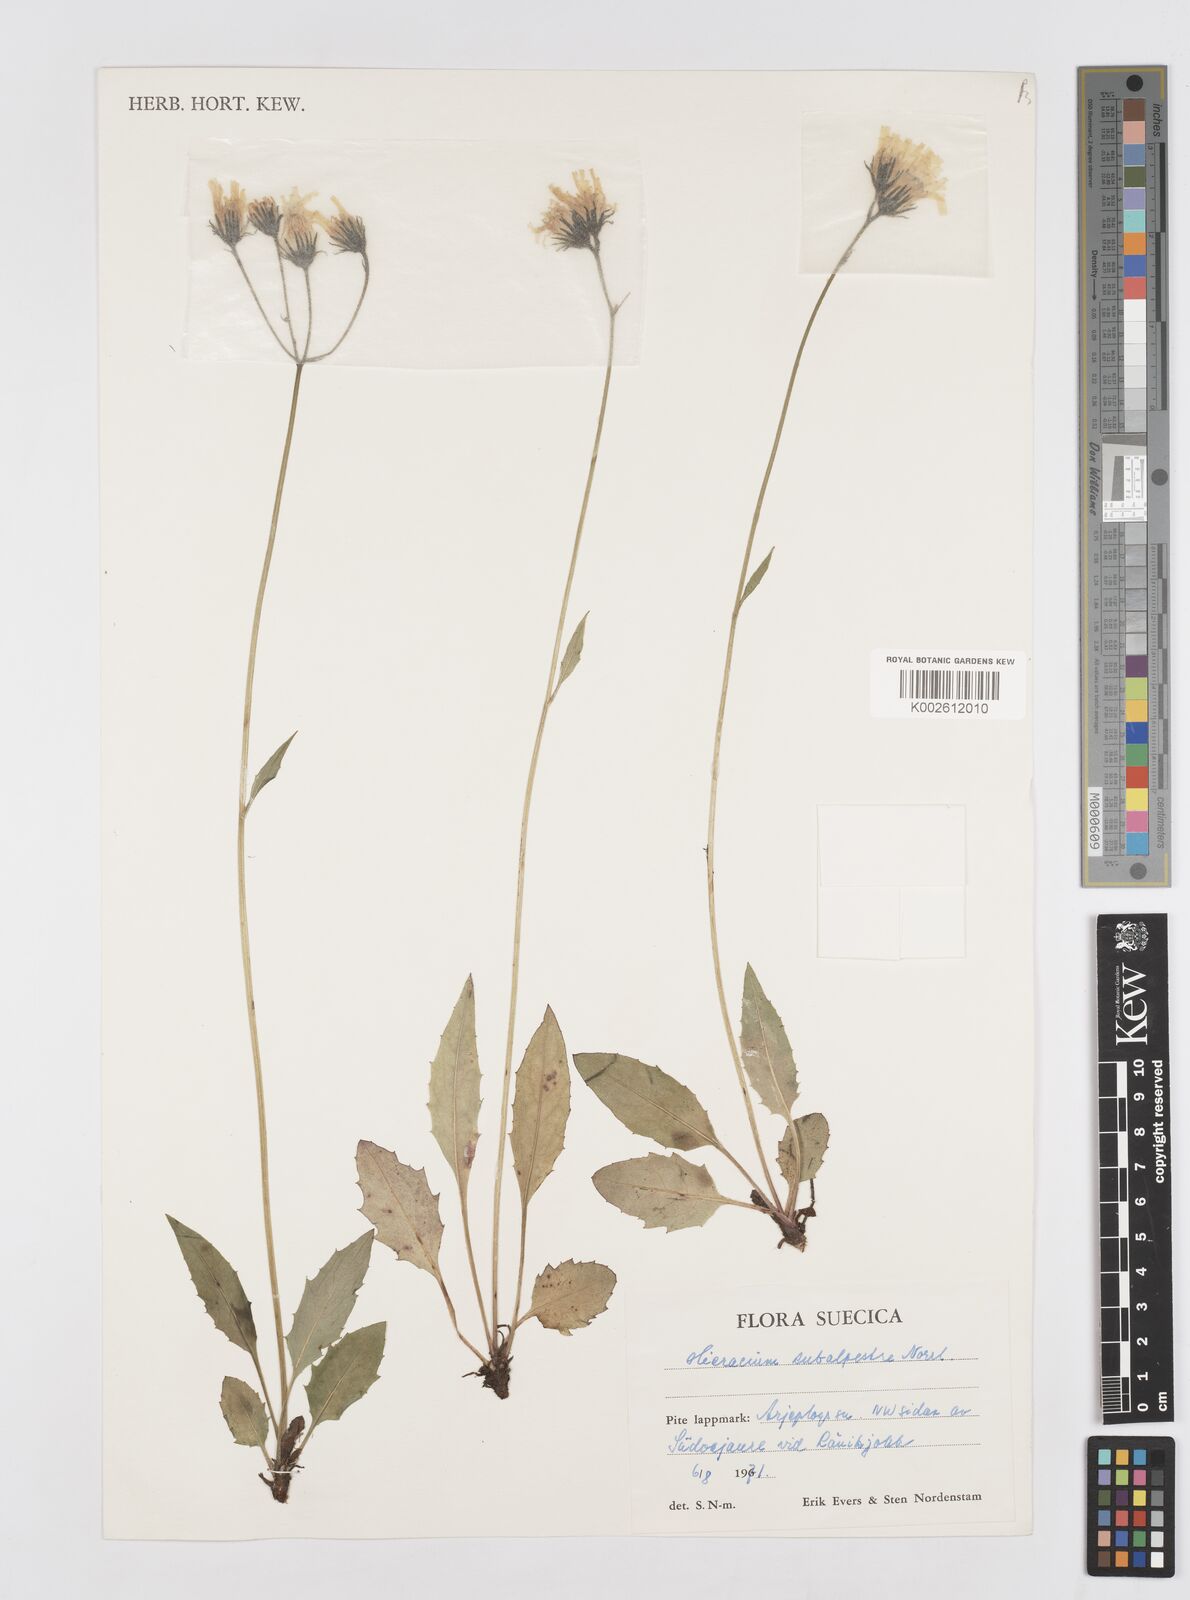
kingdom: Plantae
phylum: Tracheophyta
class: Magnoliopsida
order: Asterales
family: Asteraceae
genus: Hieracium
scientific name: Hieracium subalpestre
